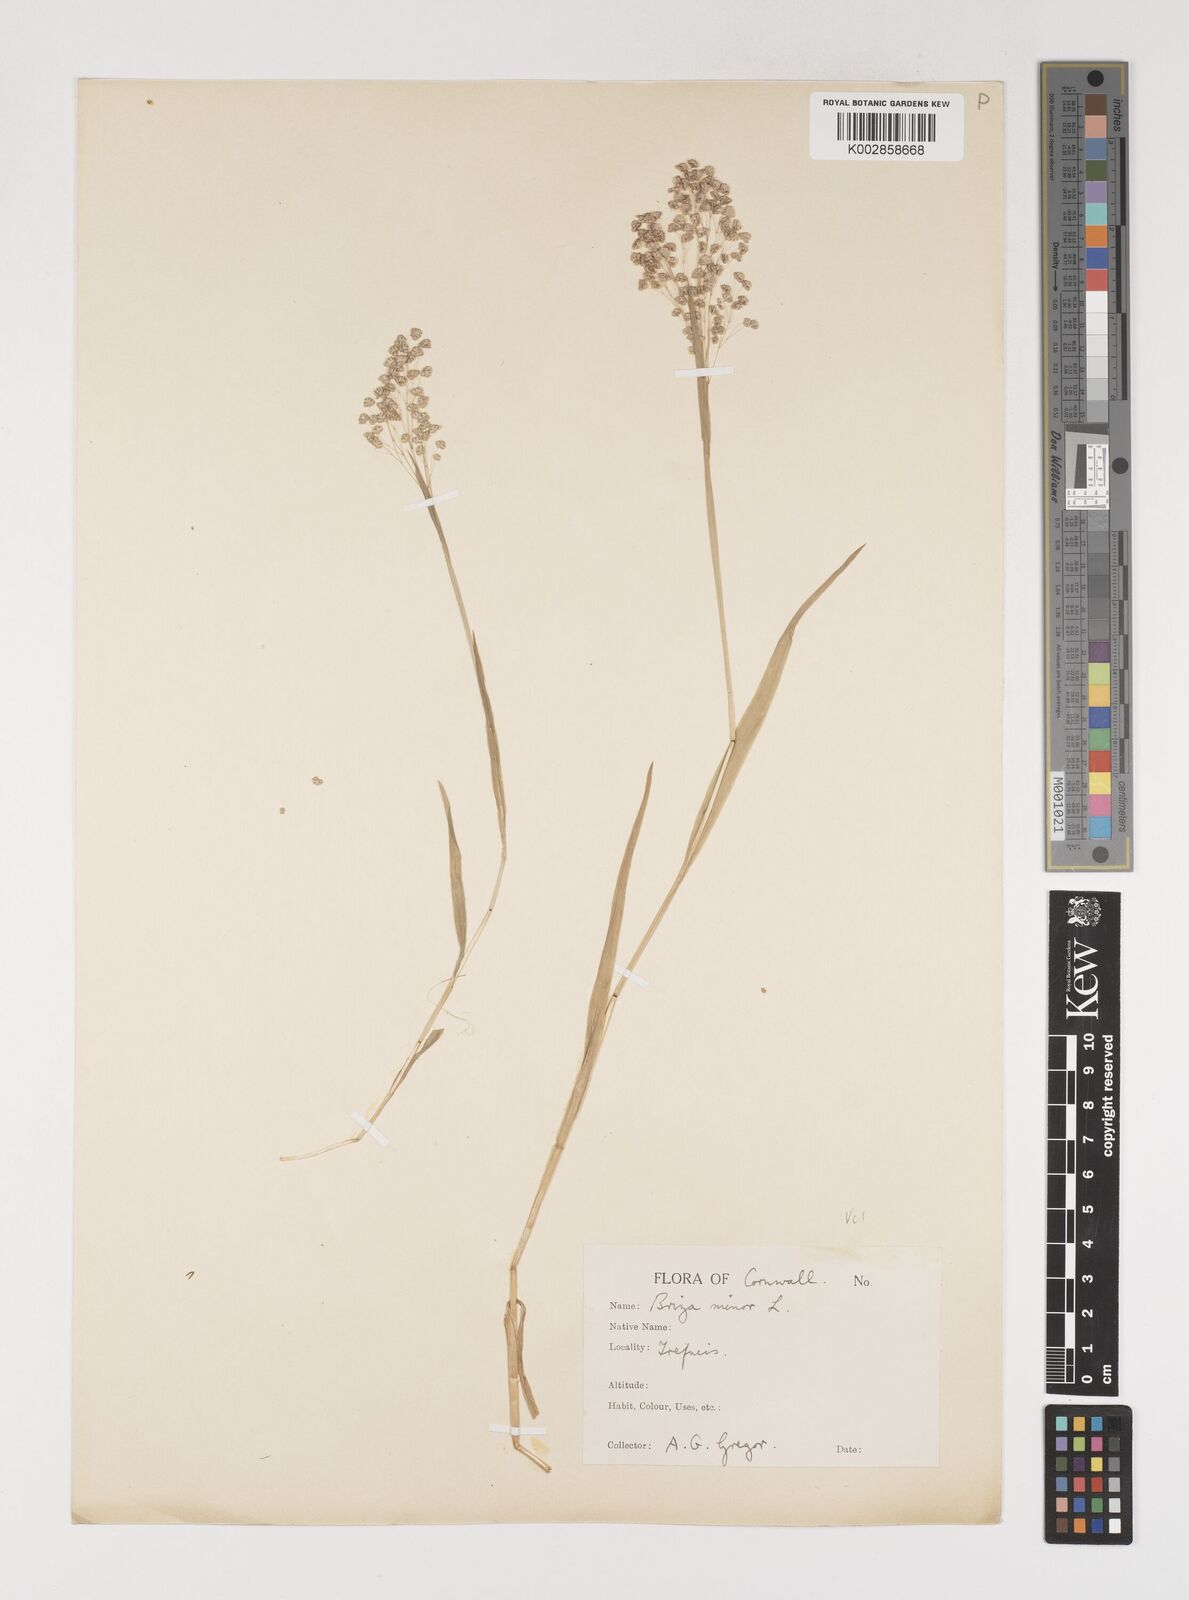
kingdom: Plantae
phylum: Tracheophyta
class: Liliopsida
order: Poales
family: Poaceae
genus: Briza
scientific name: Briza minor
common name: Lesser quaking-grass
